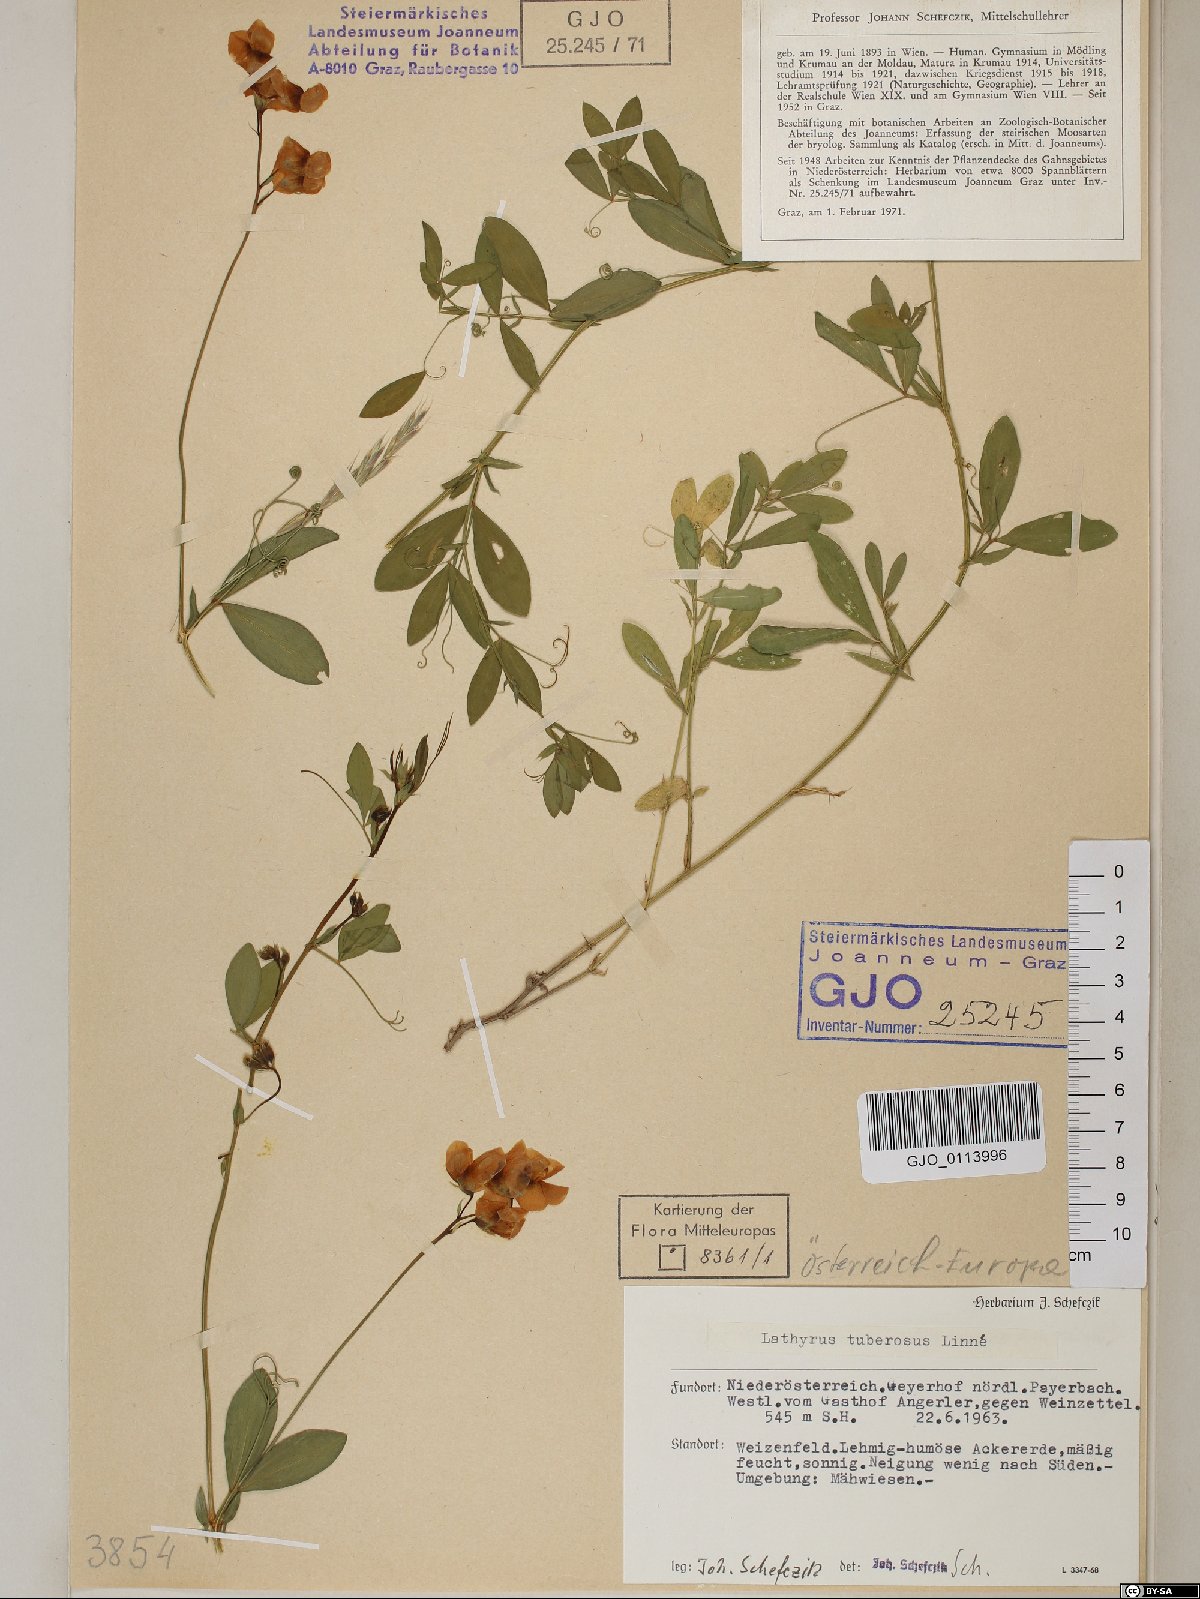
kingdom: Plantae
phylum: Tracheophyta
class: Magnoliopsida
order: Fabales
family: Fabaceae
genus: Lathyrus
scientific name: Lathyrus tuberosus
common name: Tuberous pea
